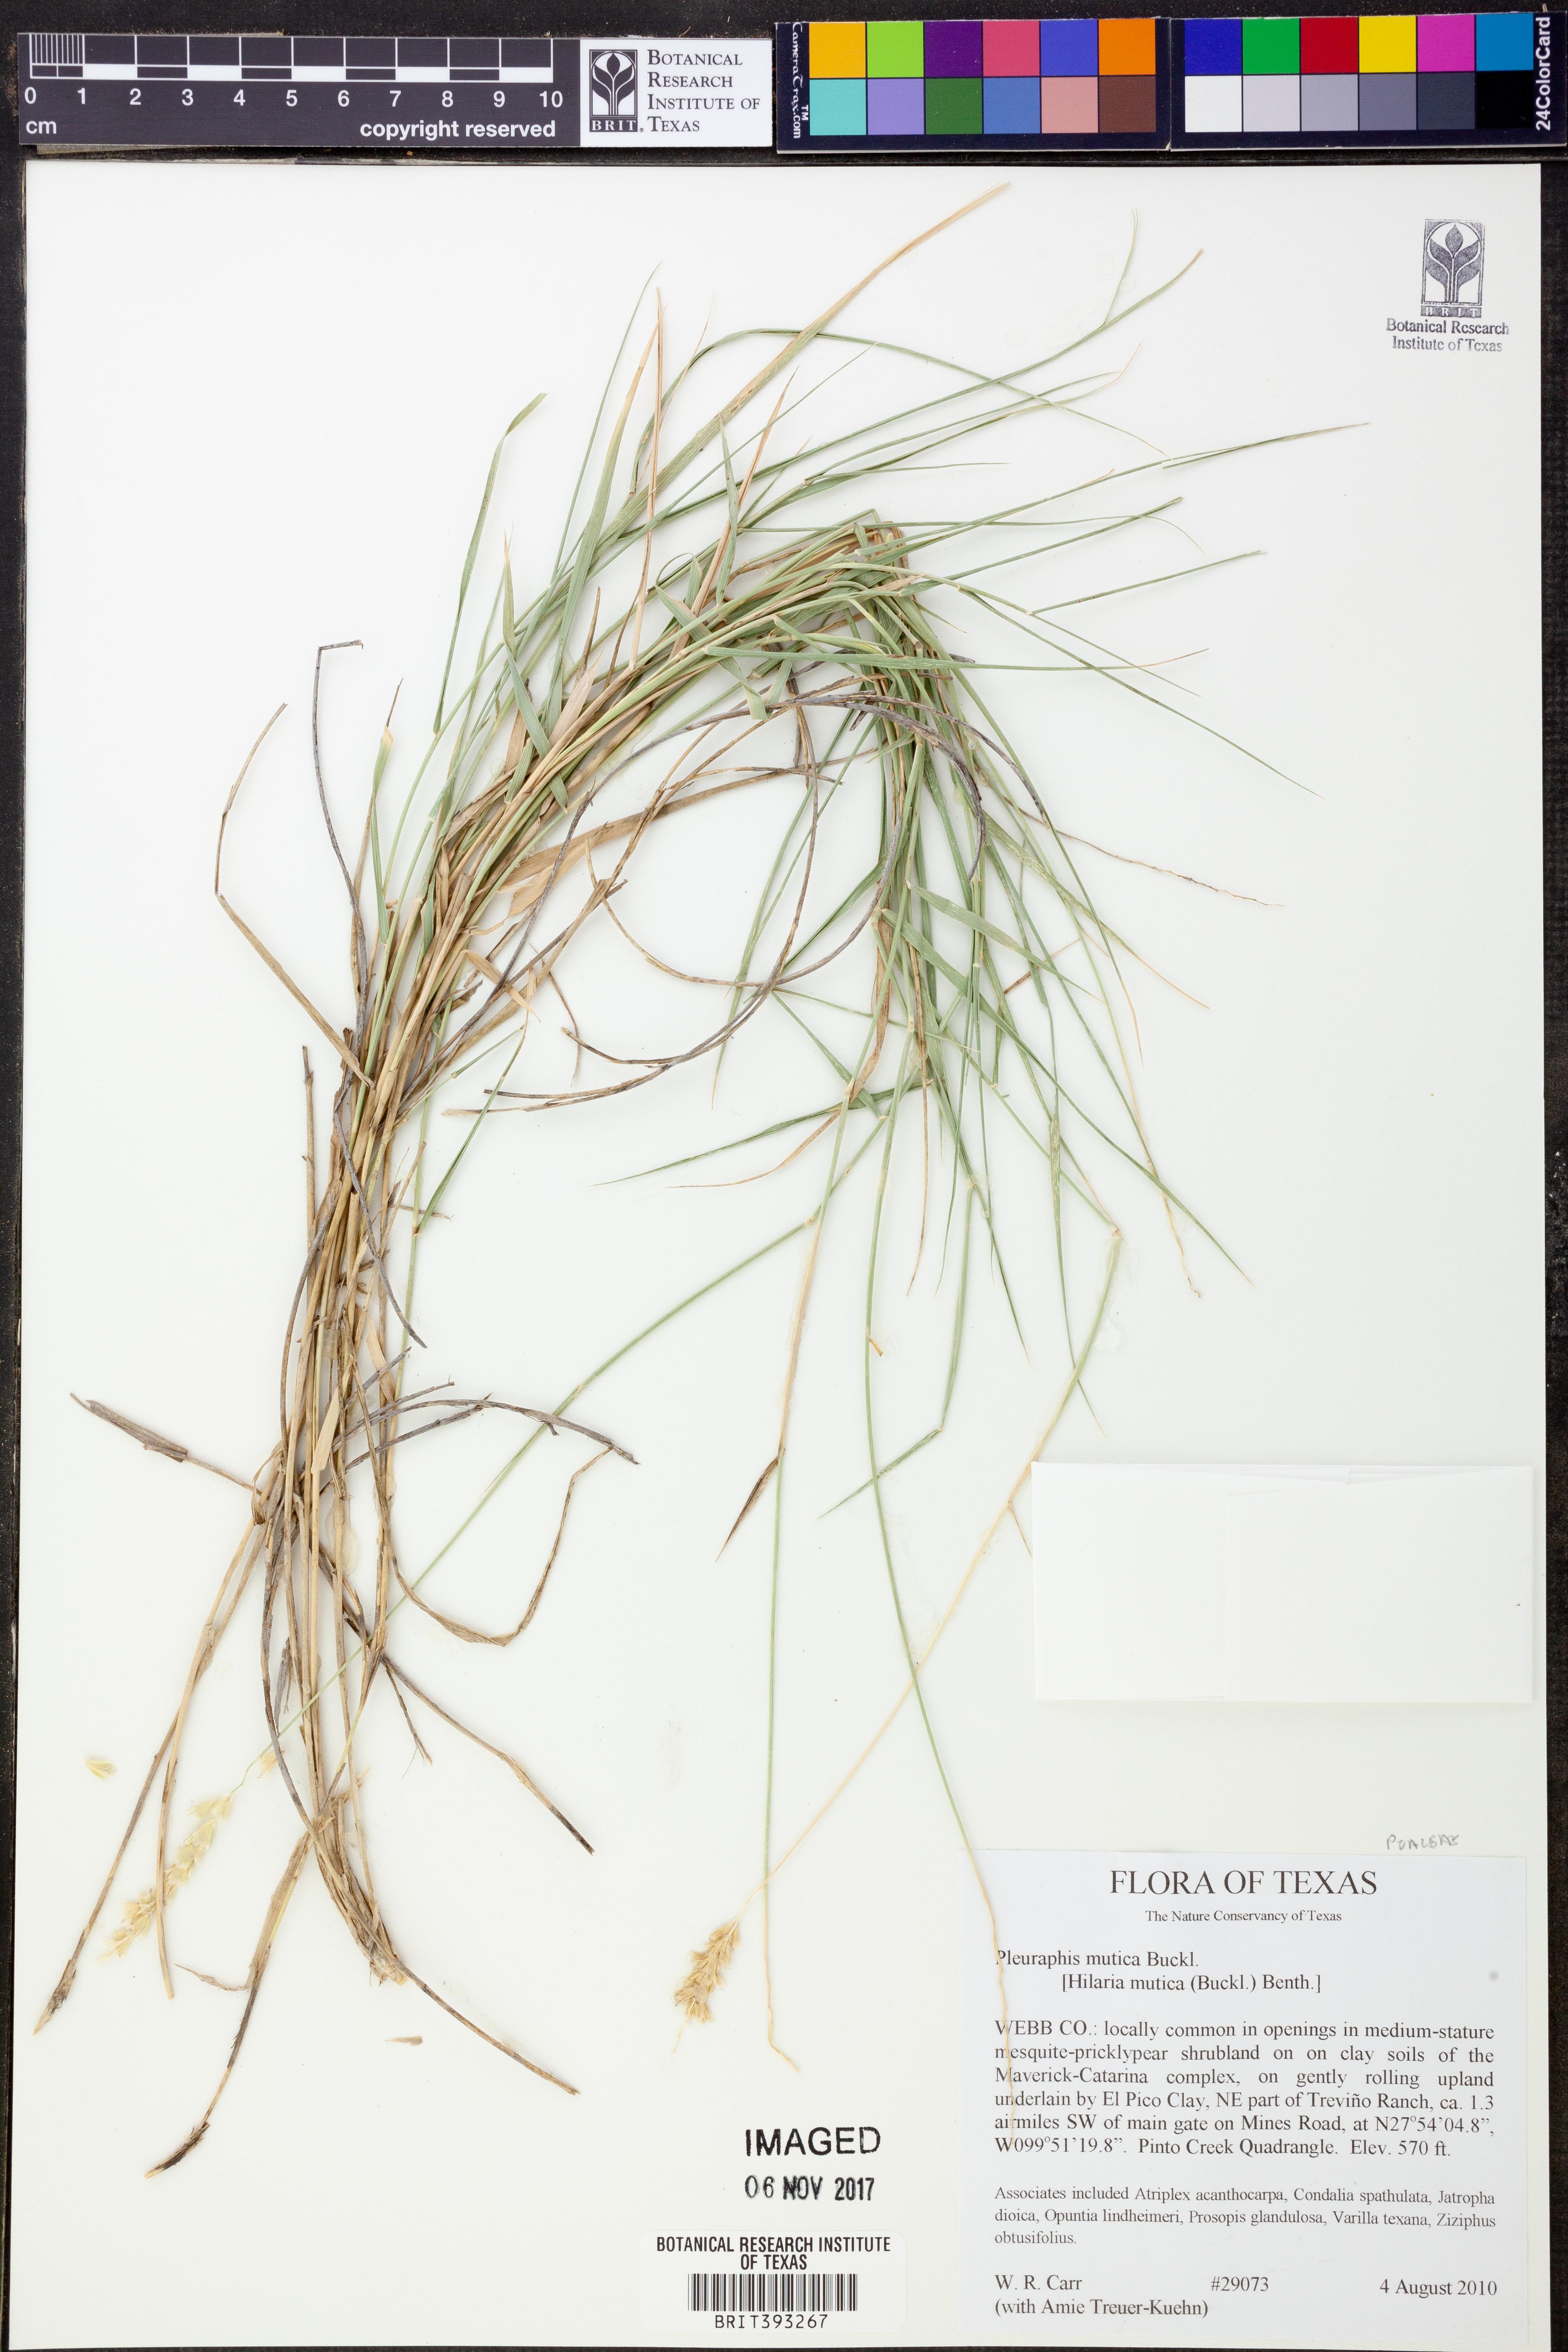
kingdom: Plantae
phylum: Tracheophyta
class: Liliopsida
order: Poales
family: Poaceae
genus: Hilaria
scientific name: Hilaria mutica
